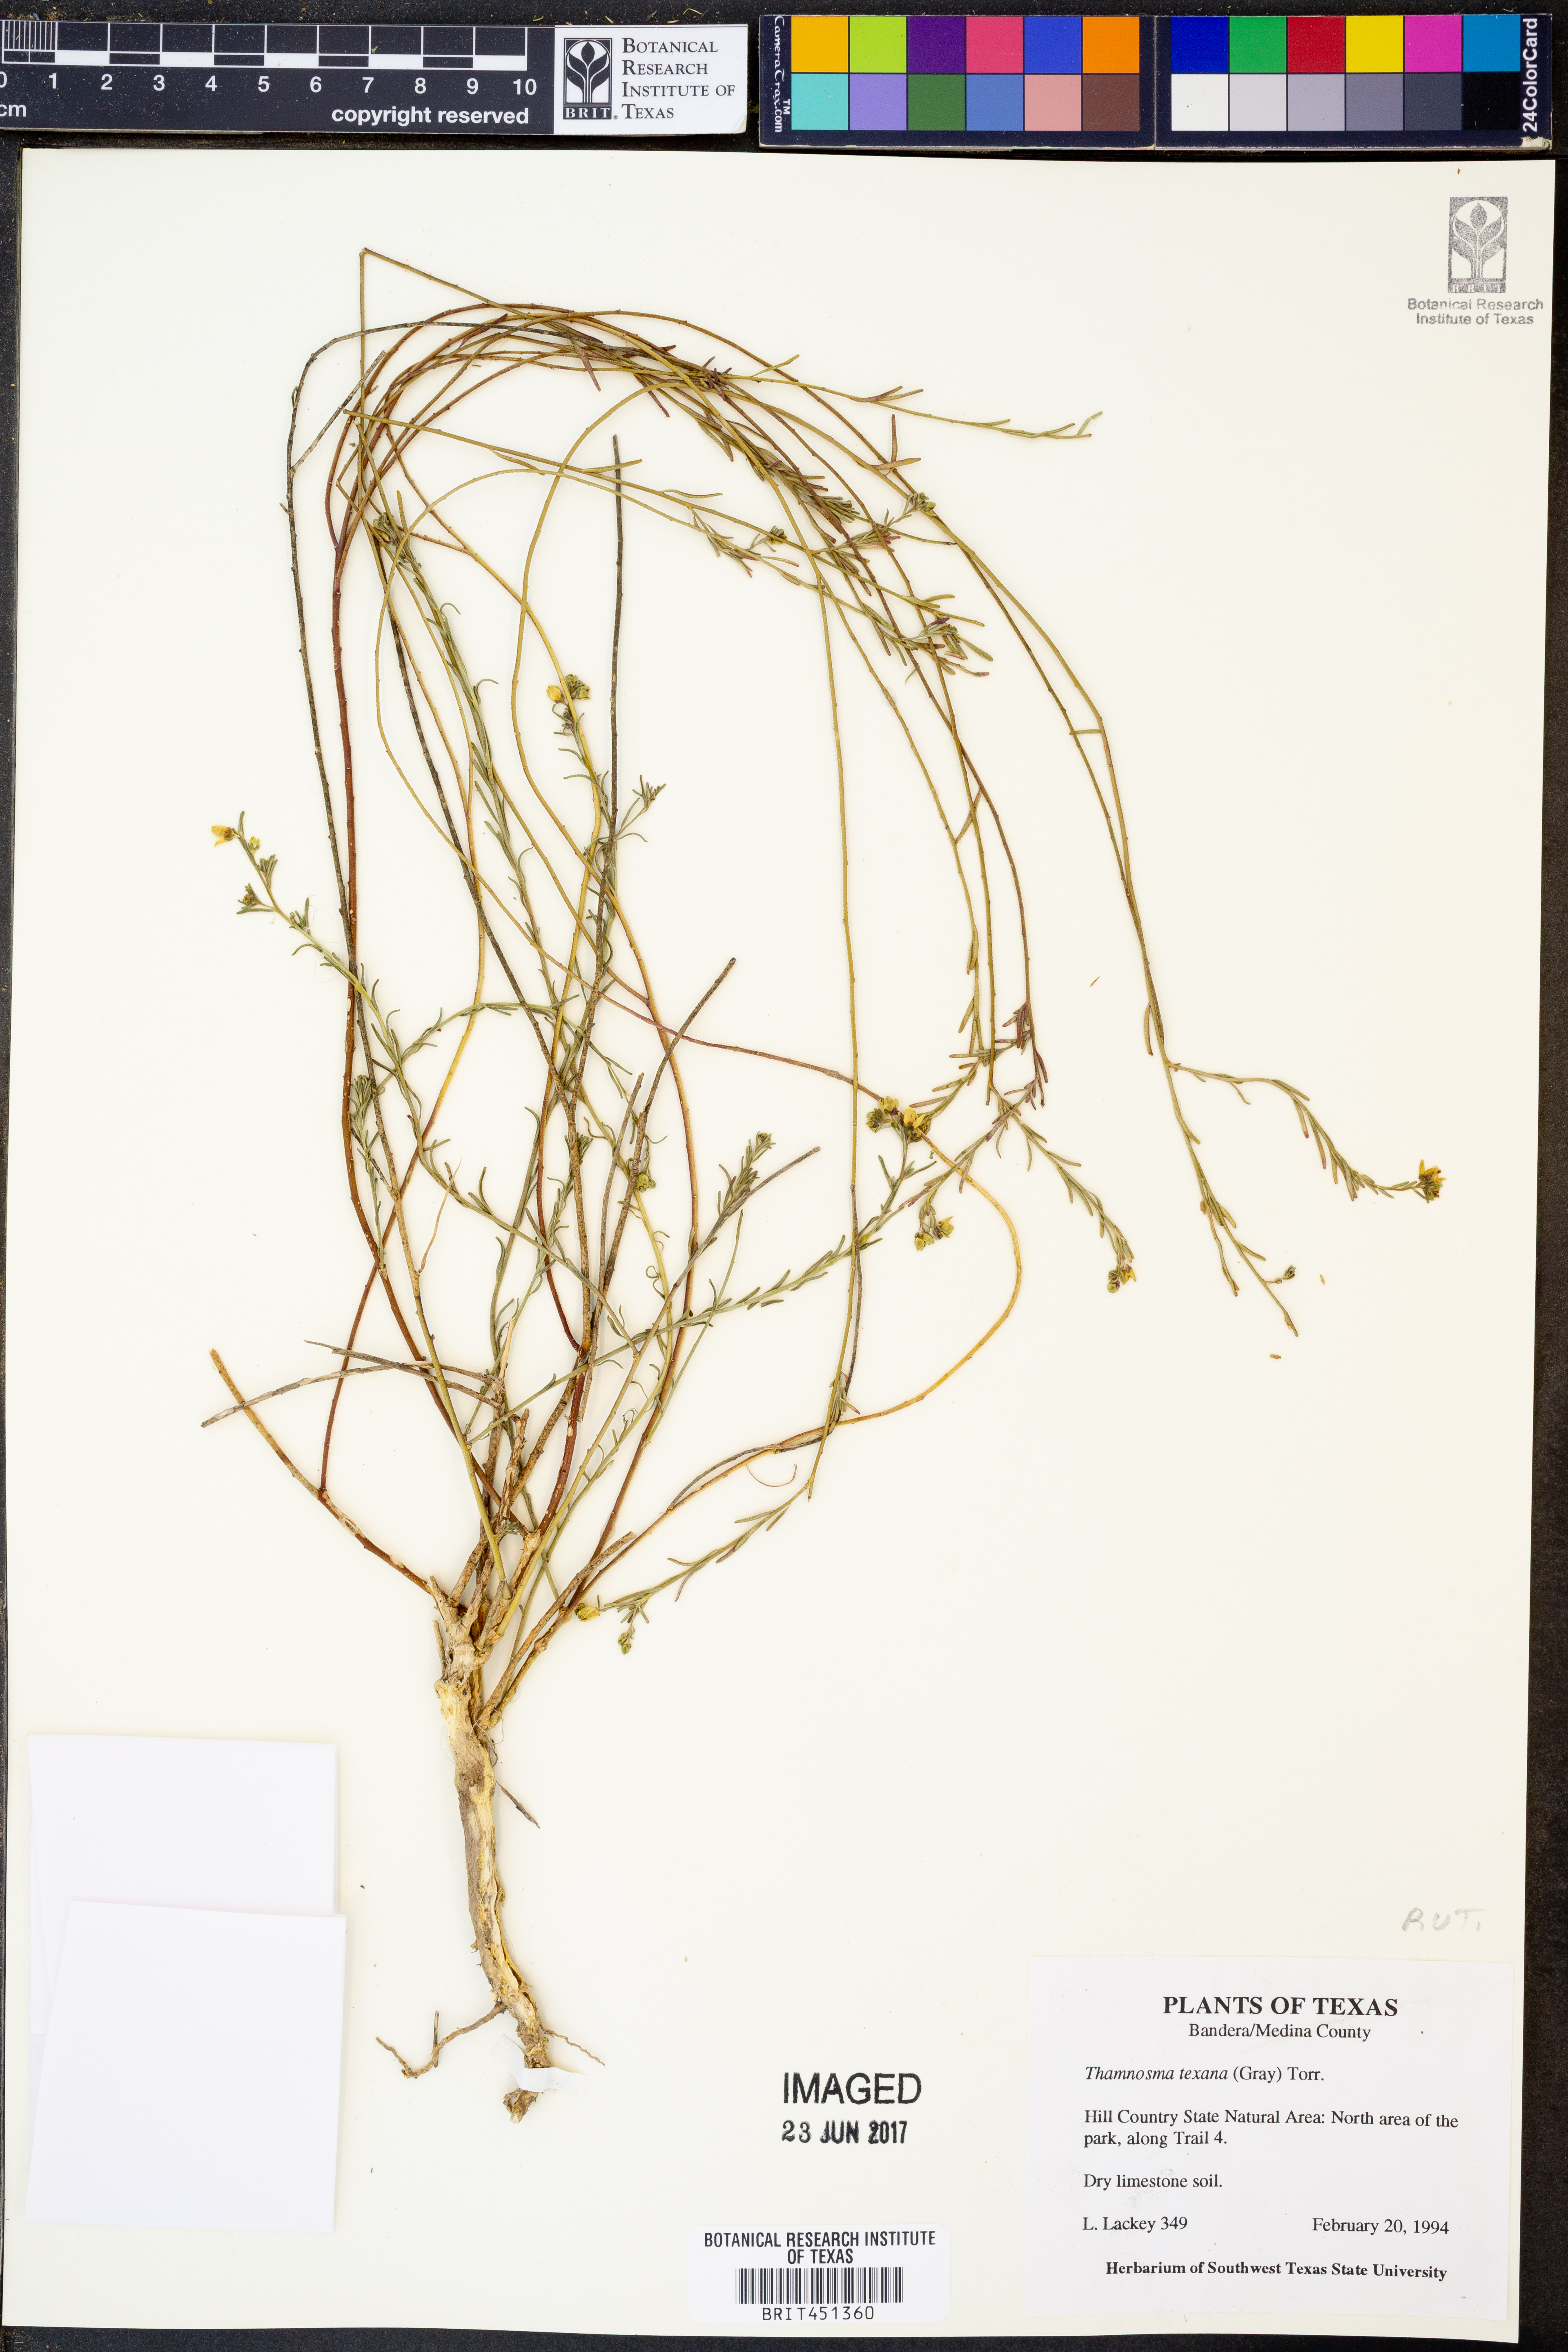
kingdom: Plantae
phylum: Tracheophyta
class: Magnoliopsida
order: Sapindales
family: Rutaceae
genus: Thamnosma
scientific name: Thamnosma texana
